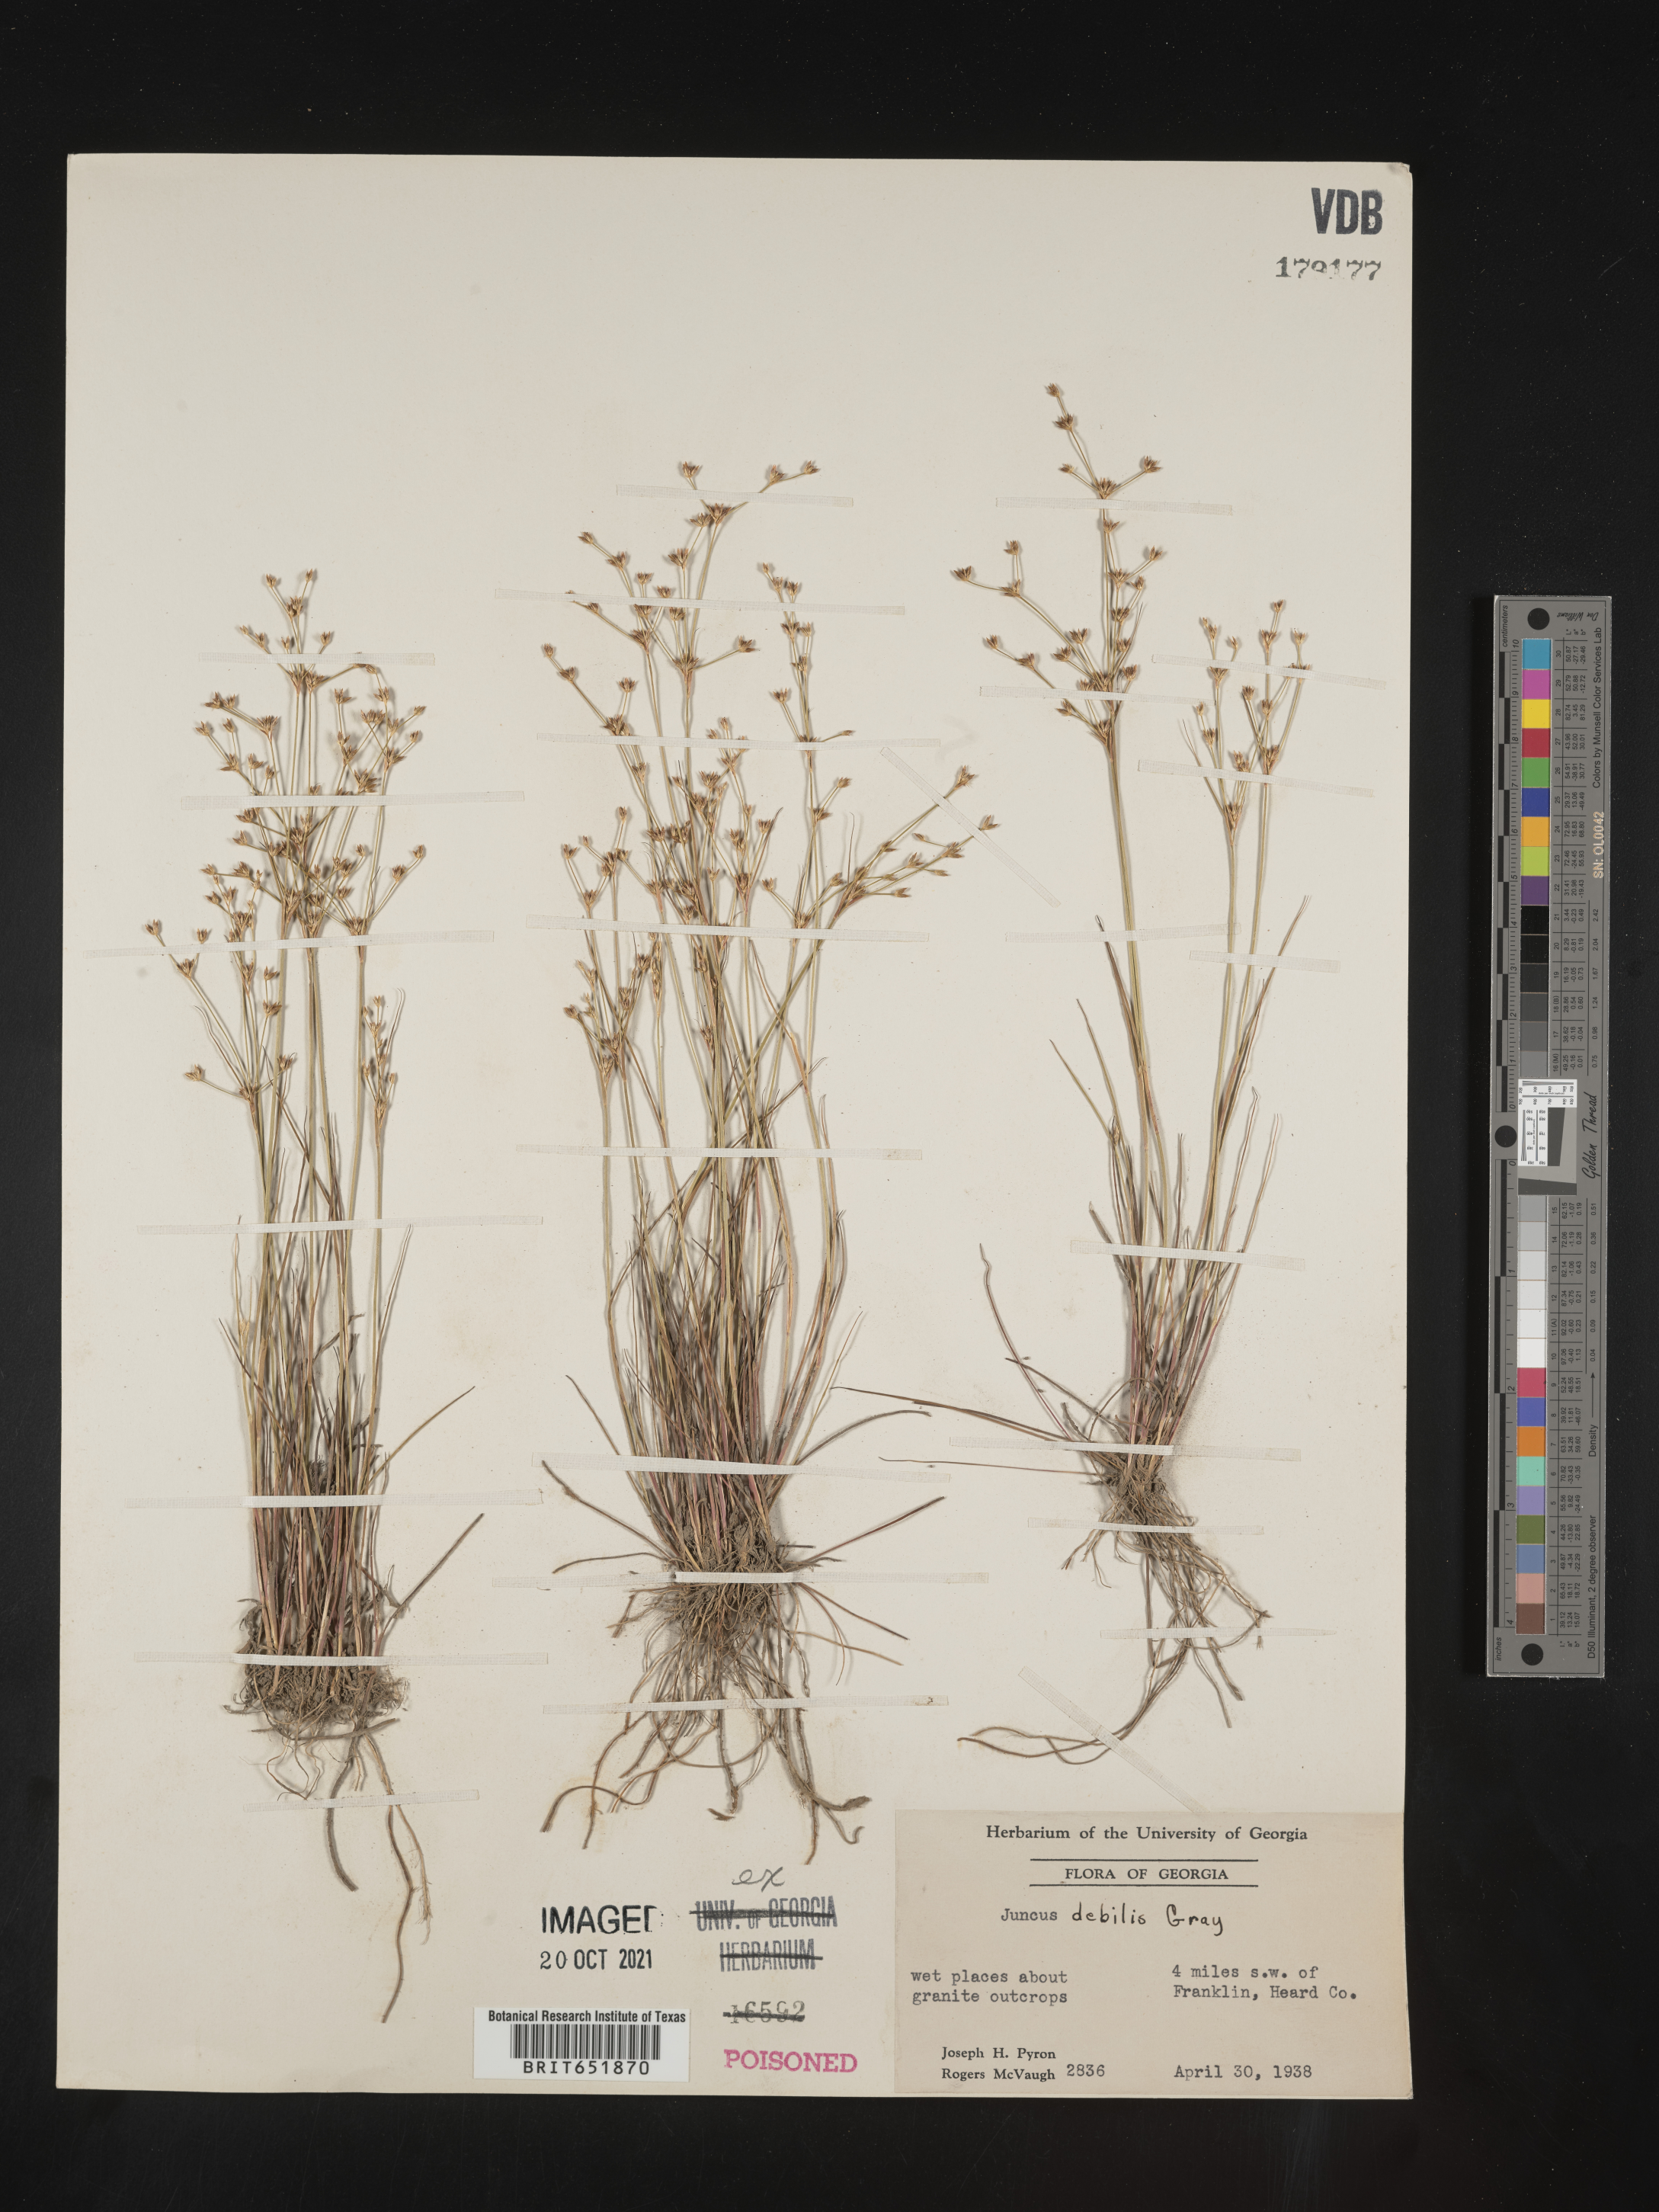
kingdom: Plantae
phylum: Tracheophyta
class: Liliopsida
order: Poales
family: Juncaceae
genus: Juncus
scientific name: Juncus debilis
